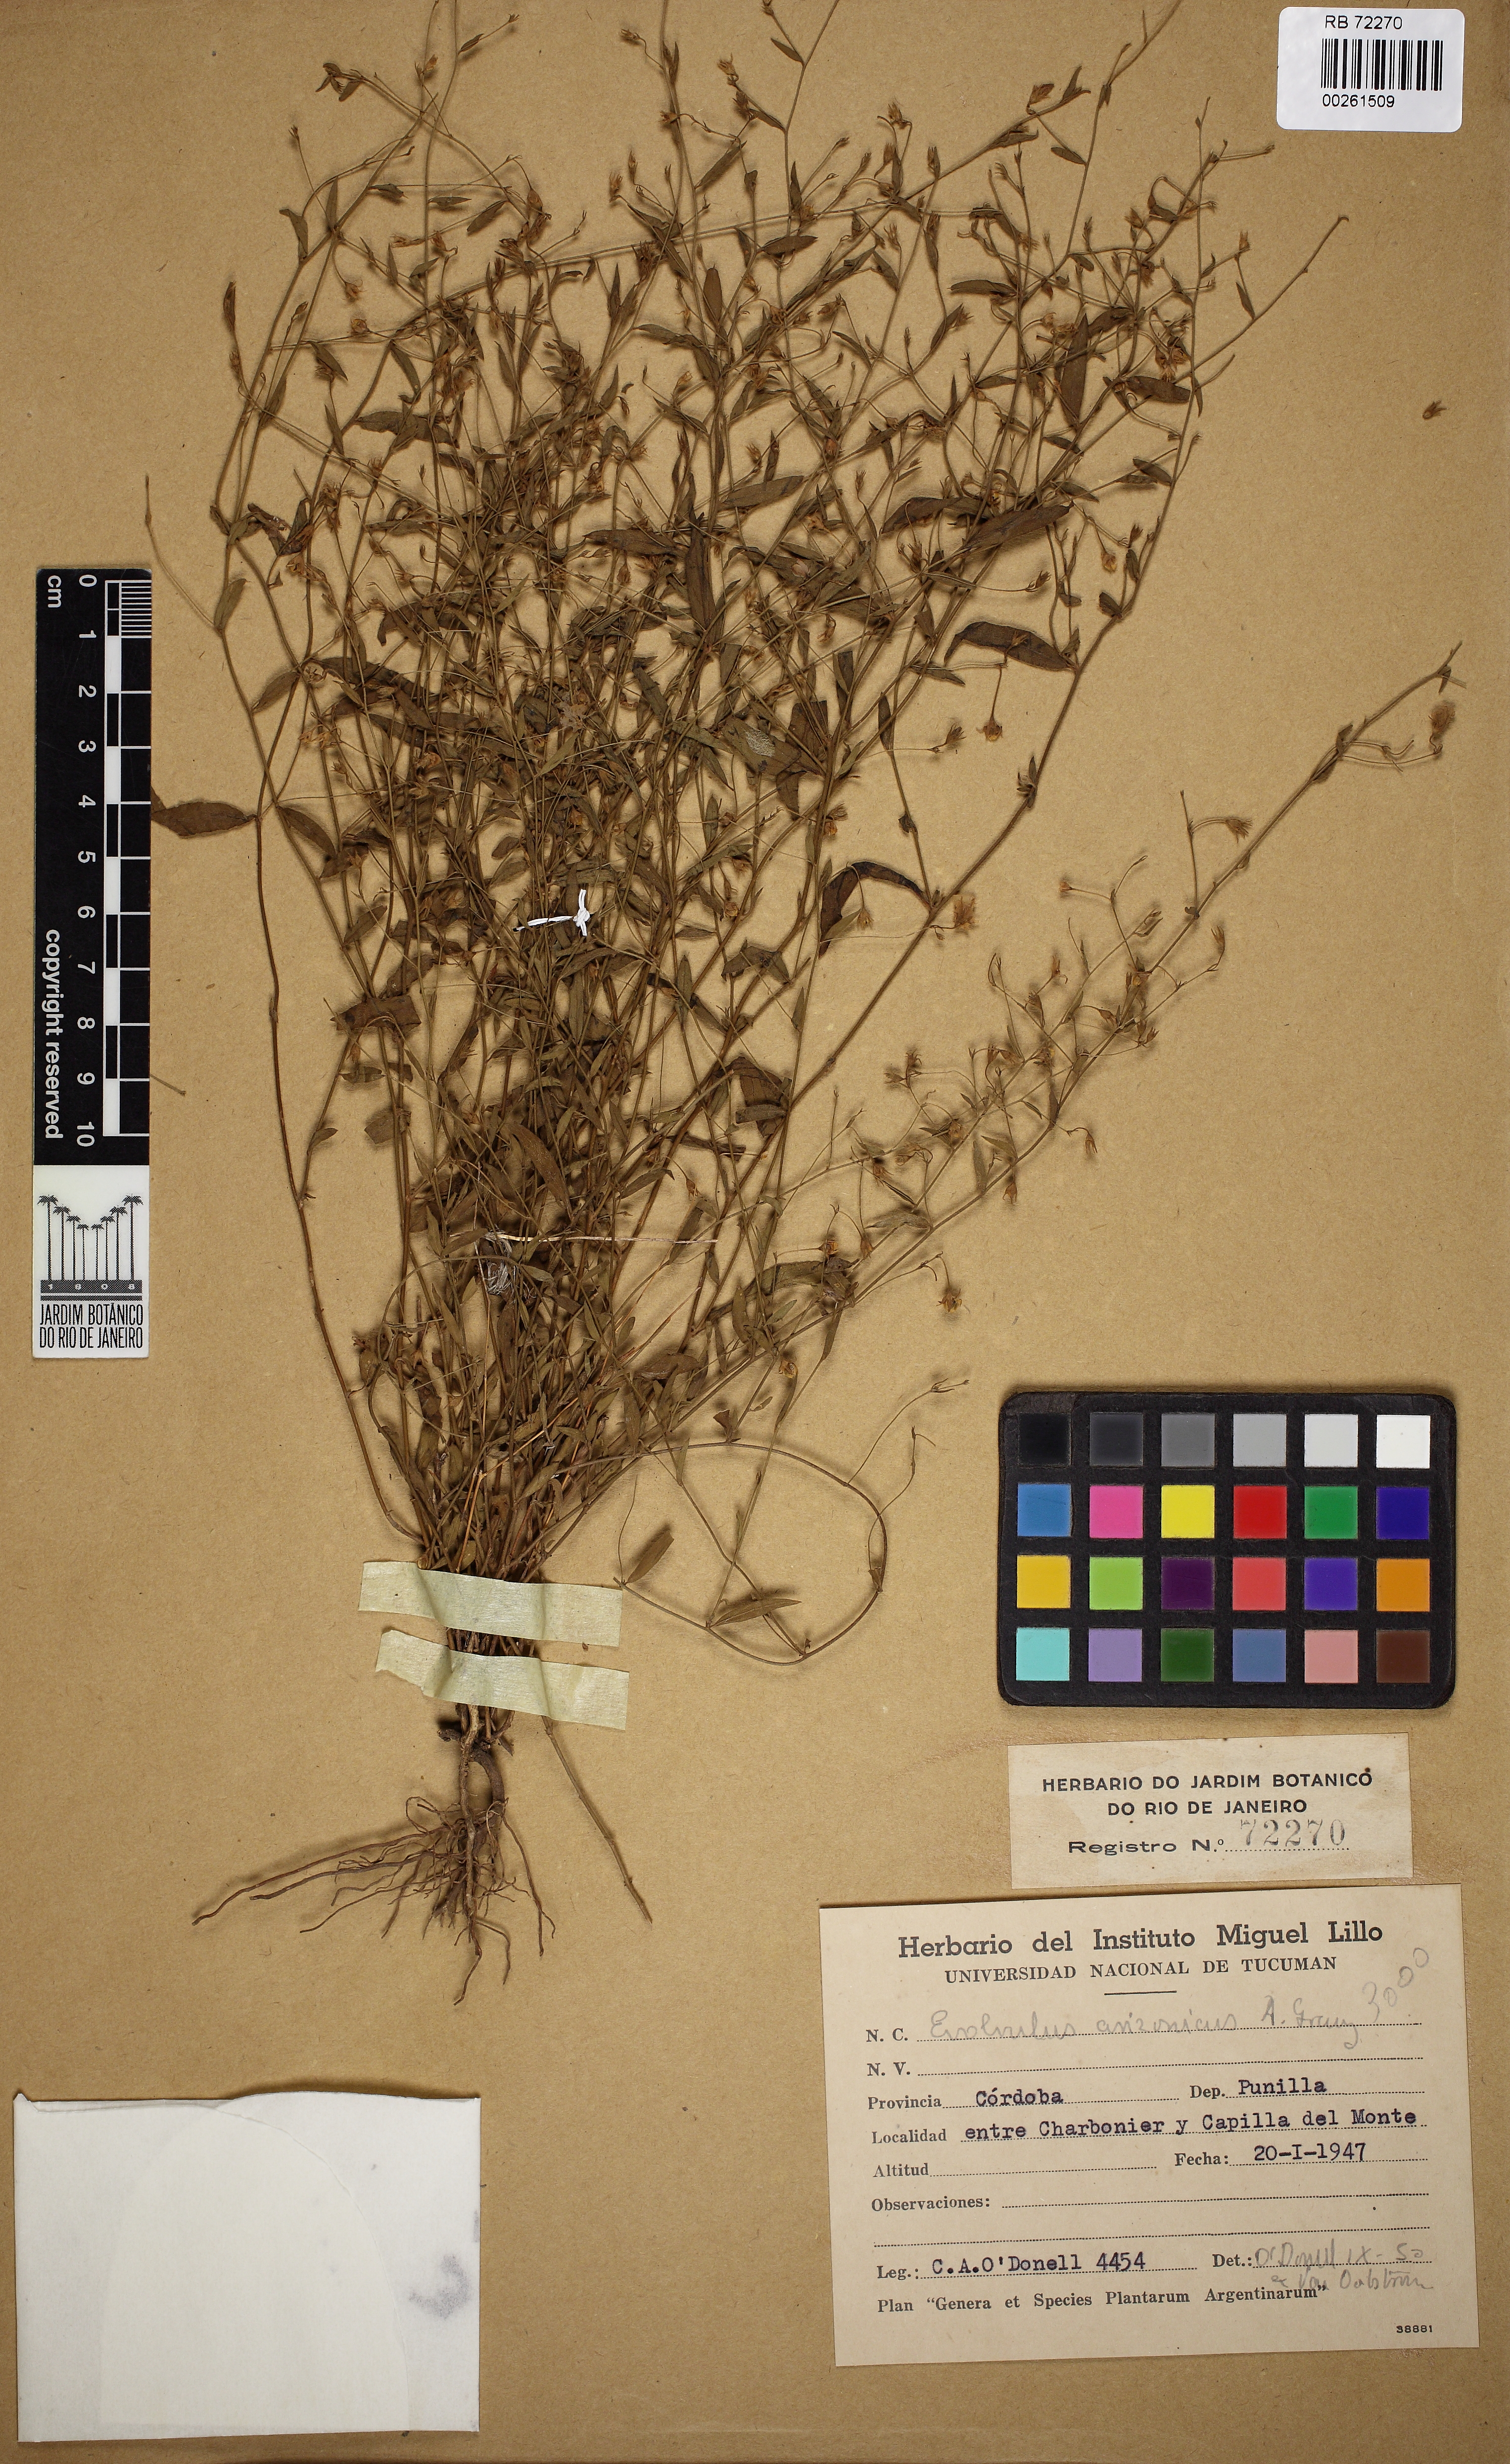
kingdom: Plantae
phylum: Tracheophyta
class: Magnoliopsida
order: Solanales
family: Convolvulaceae
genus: Evolvulus
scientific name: Evolvulus arizonicus
